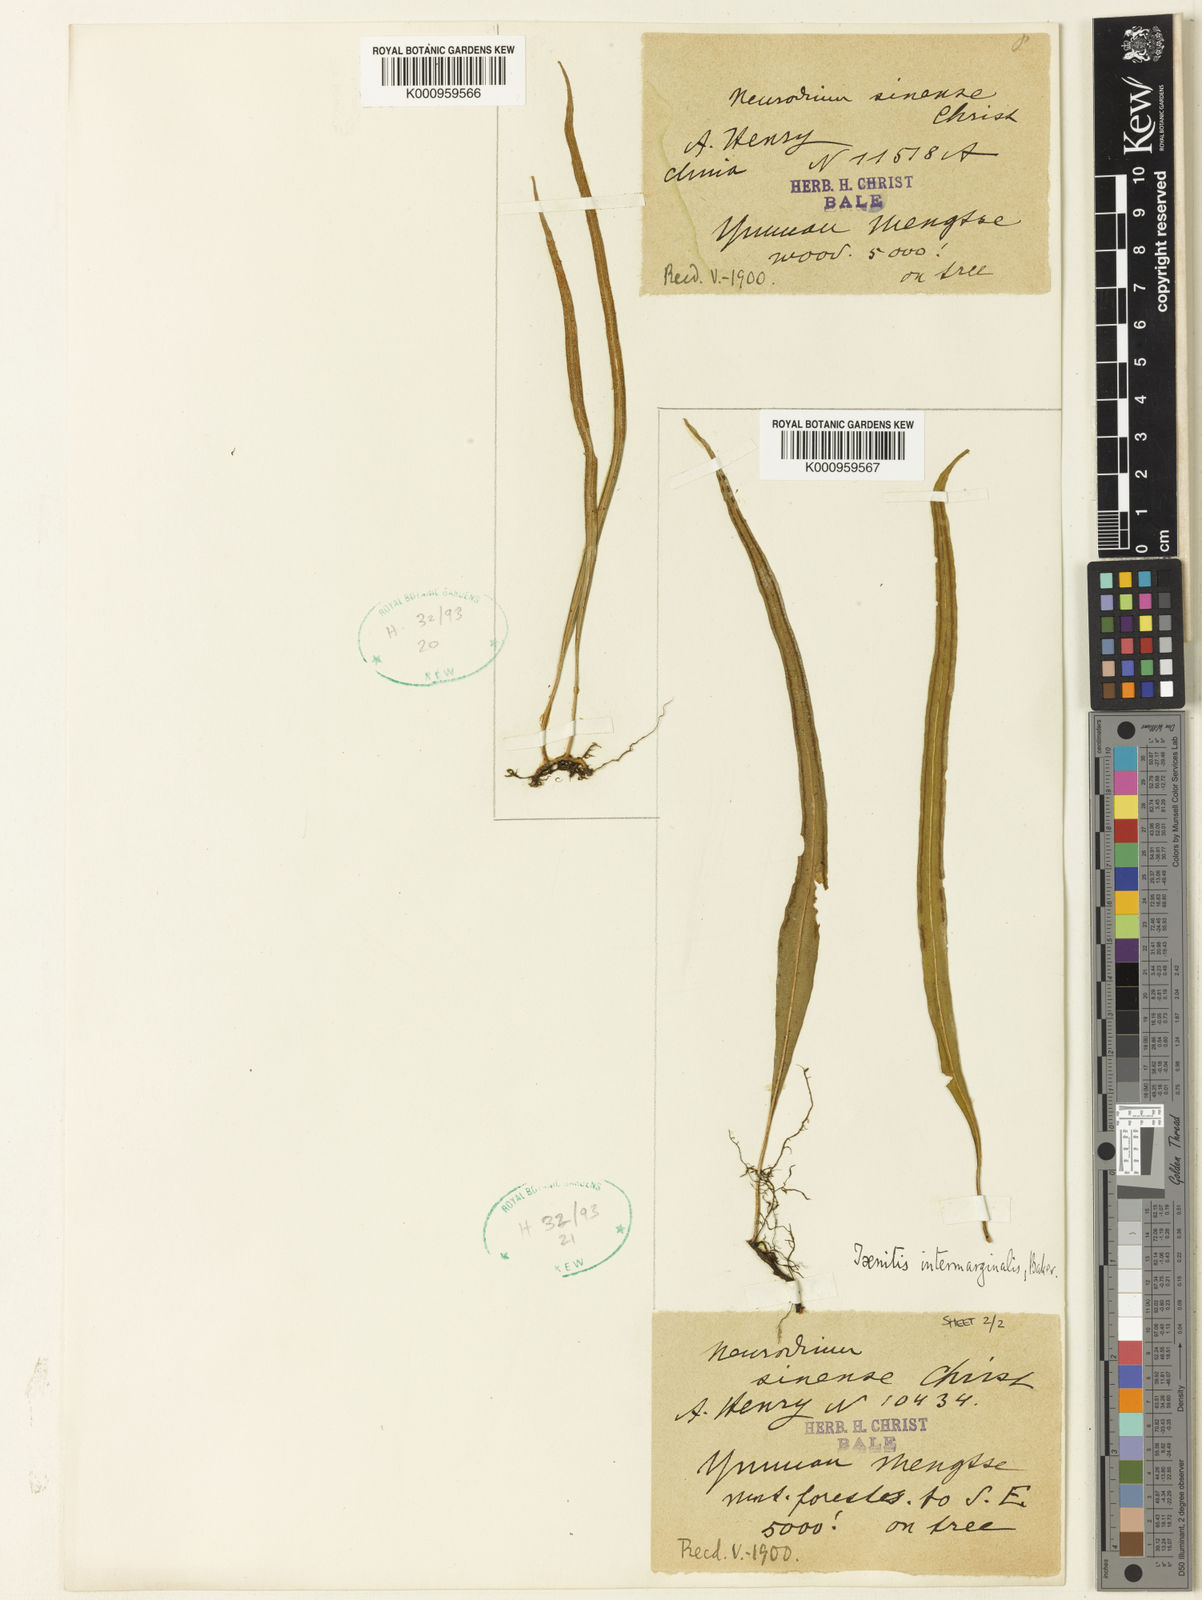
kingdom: Plantae
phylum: Tracheophyta
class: Polypodiopsida
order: Polypodiales
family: Polypodiaceae
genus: Lepisorus
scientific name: Lepisorus sinensis
